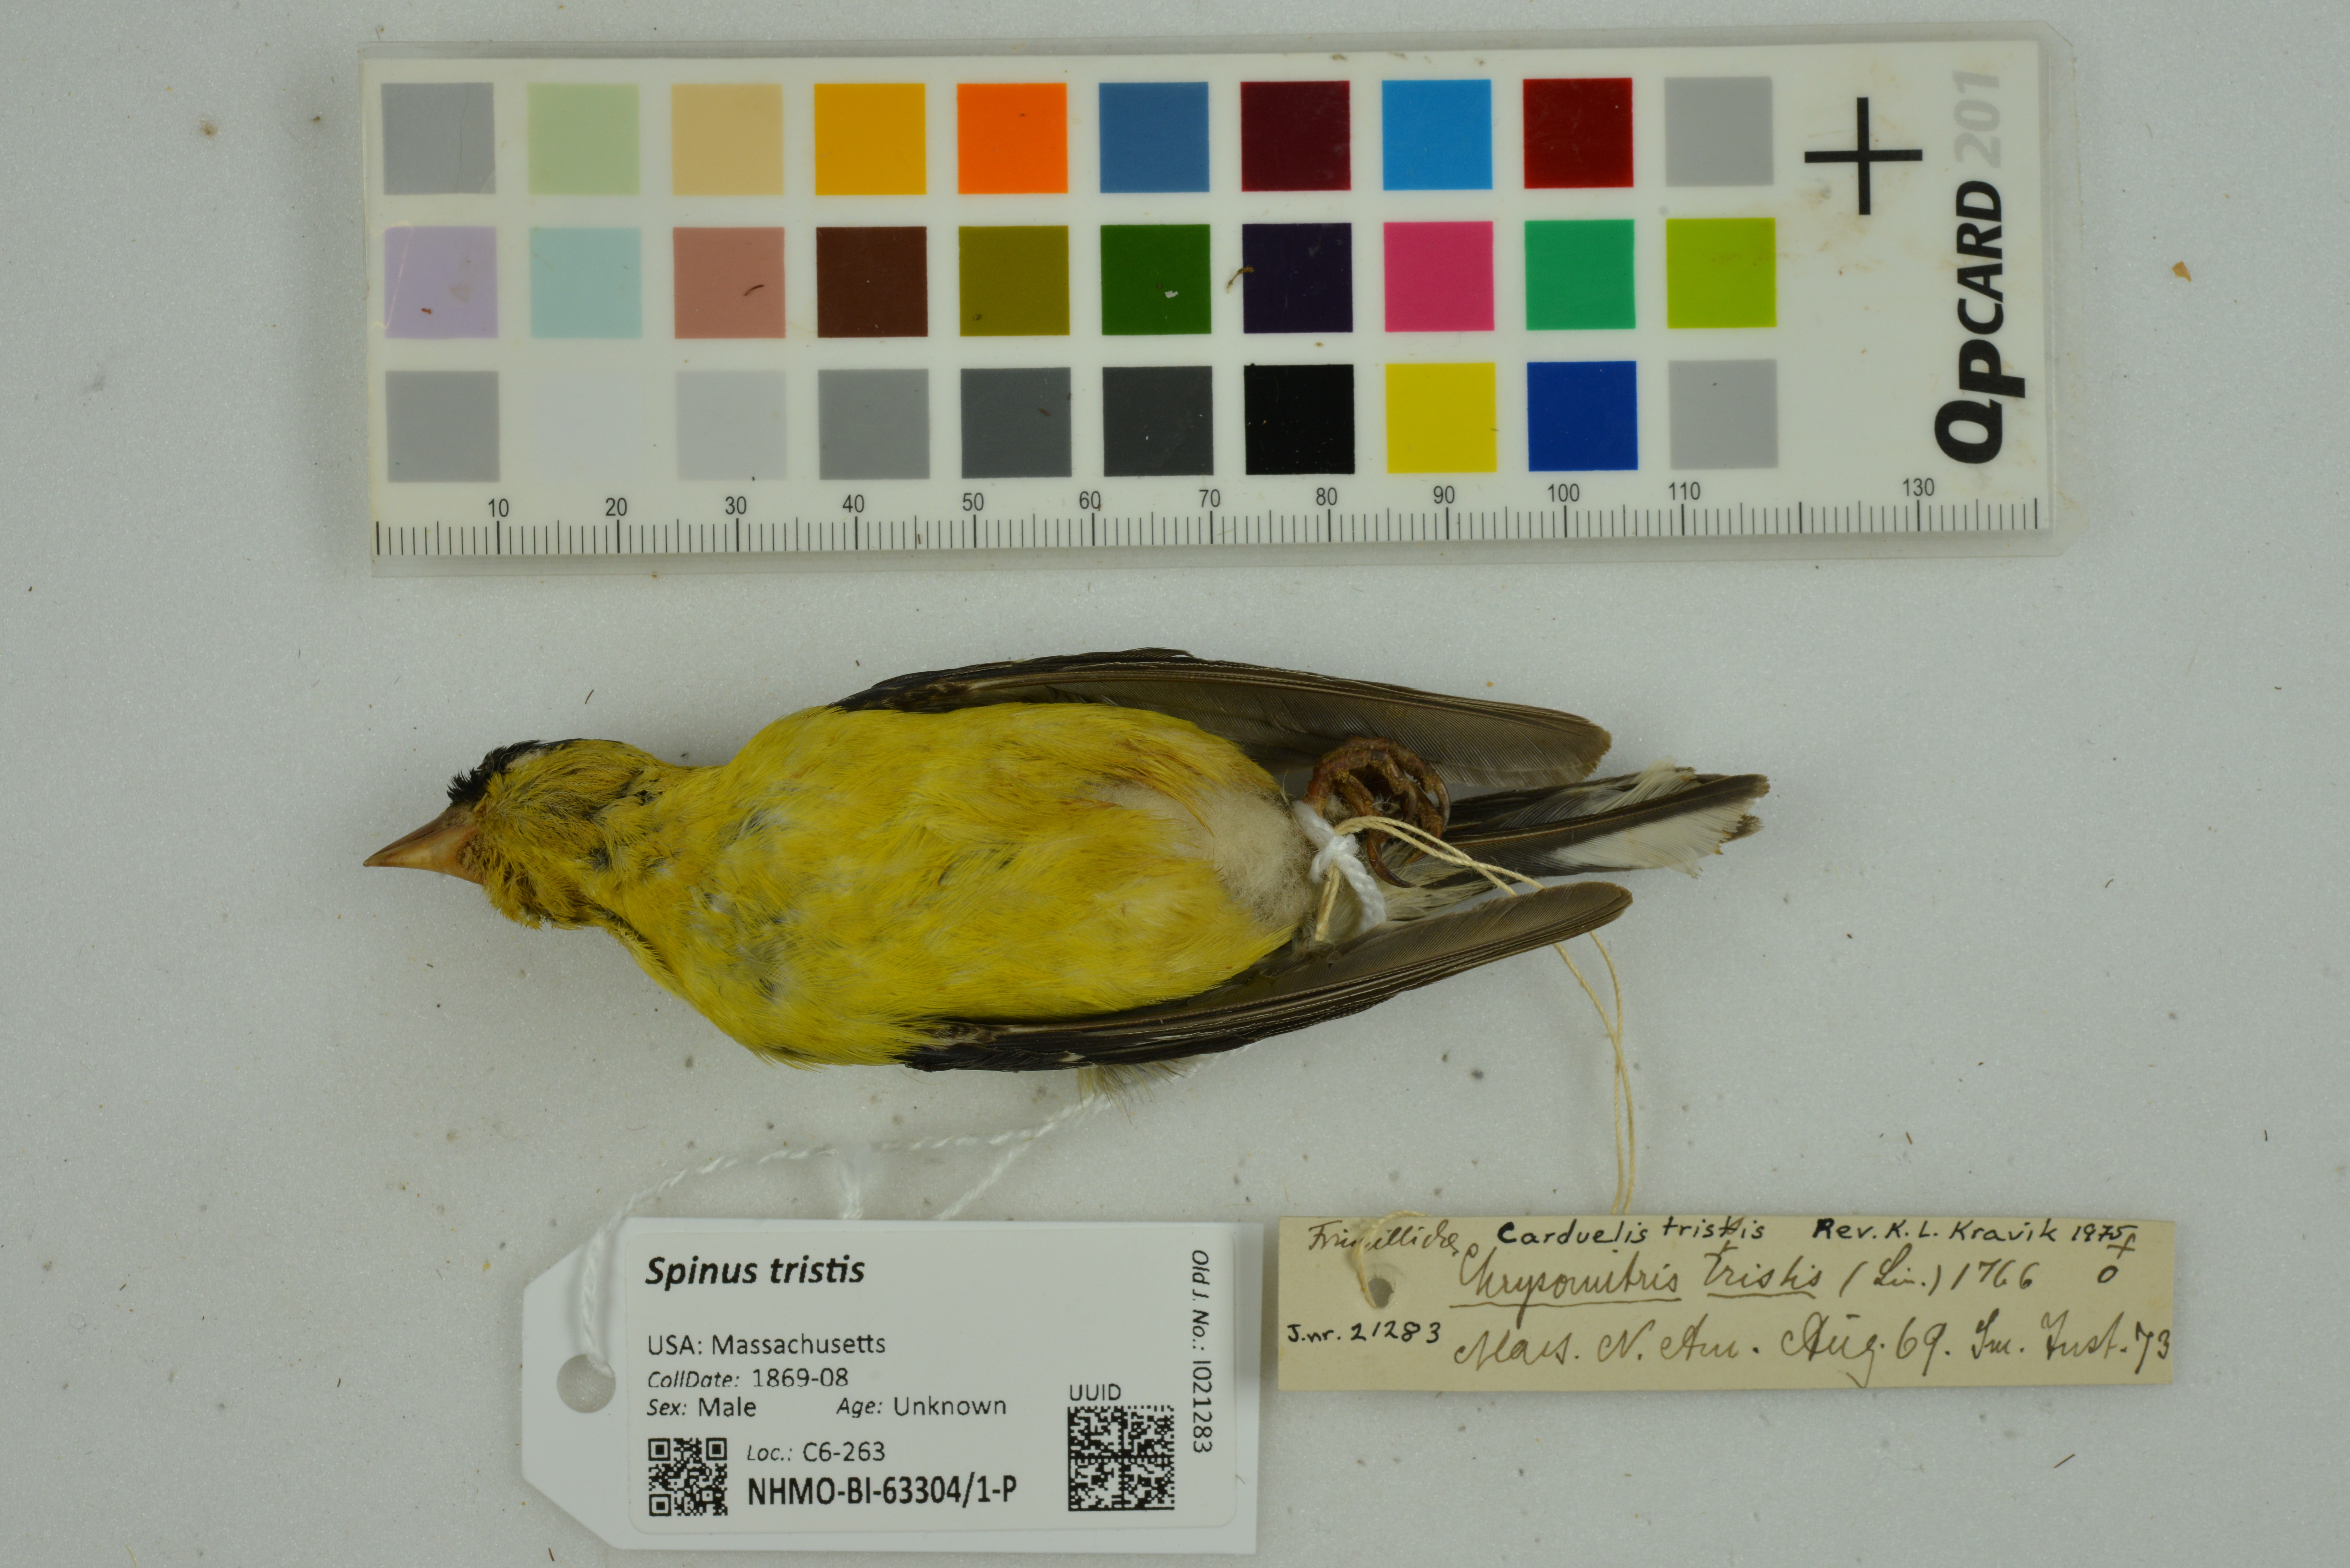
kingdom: Animalia
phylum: Chordata
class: Aves
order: Passeriformes
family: Fringillidae
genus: Spinus
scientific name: Spinus tristis
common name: American goldfinch
